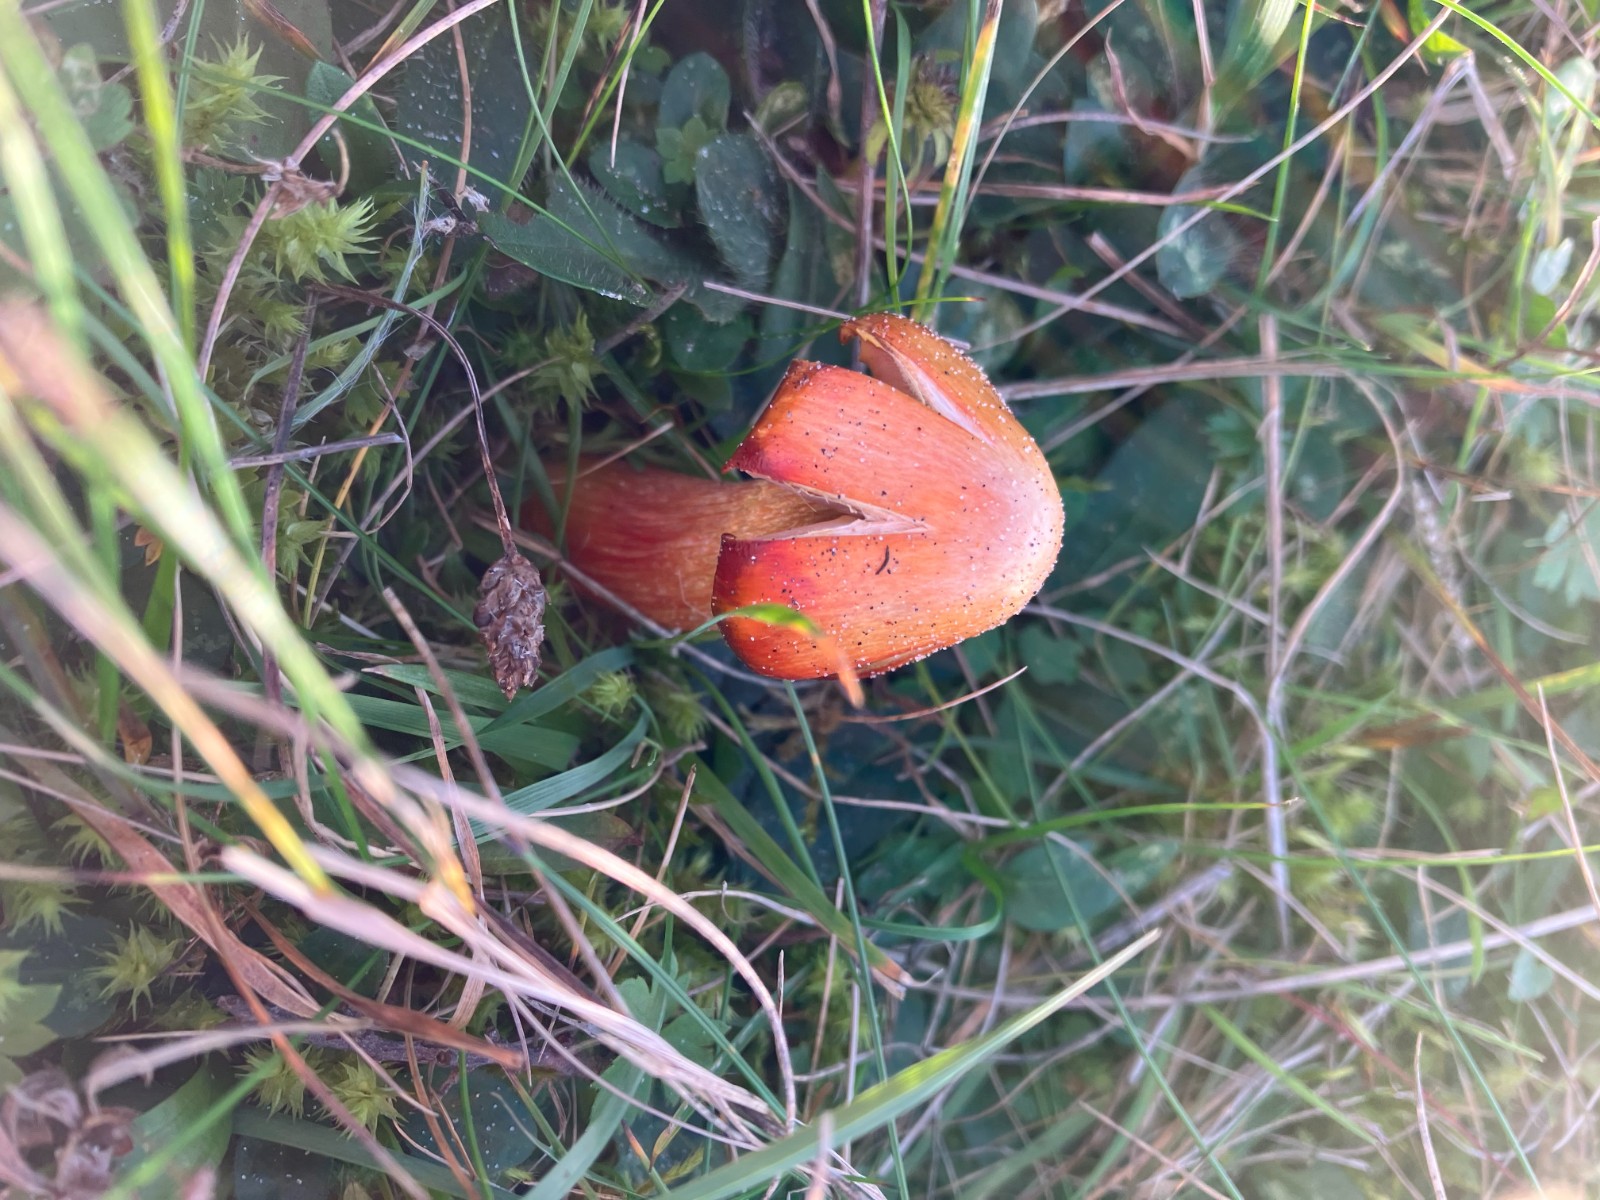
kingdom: Fungi
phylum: Basidiomycota
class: Agaricomycetes
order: Agaricales
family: Hygrophoraceae
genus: Hygrocybe
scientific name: Hygrocybe punicea
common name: skarlagen-vokshat
